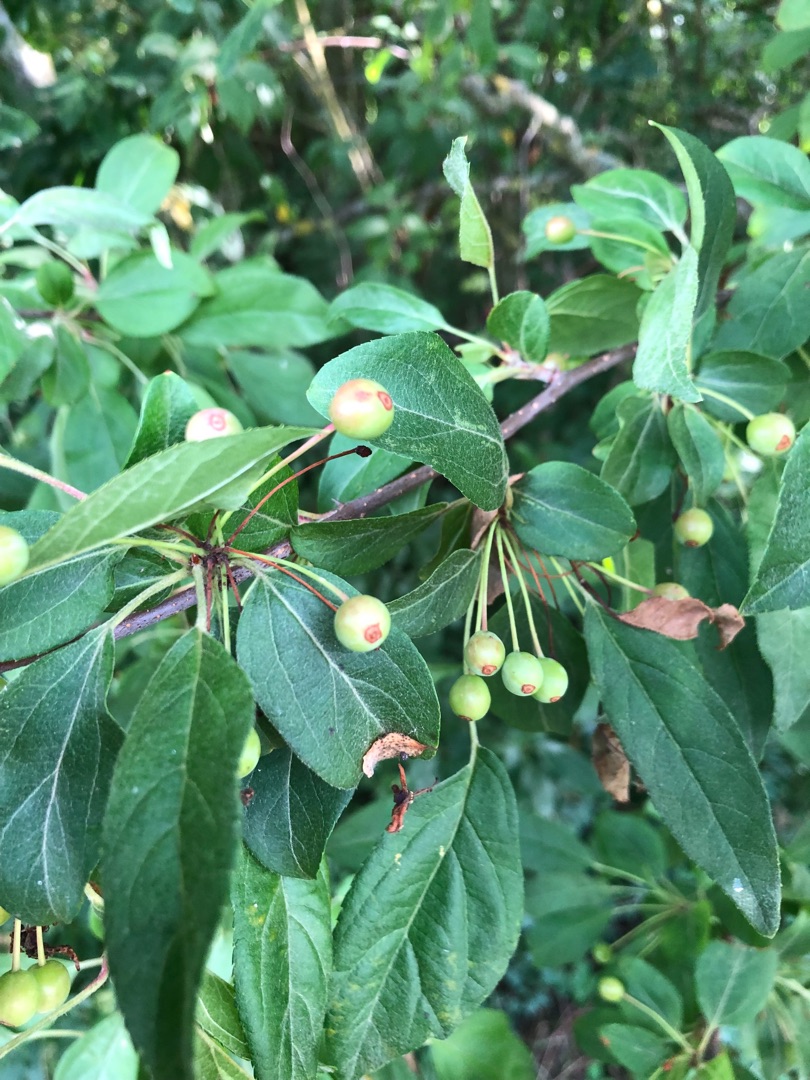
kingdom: Plantae
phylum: Tracheophyta
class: Magnoliopsida
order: Rosales
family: Rosaceae
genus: Malus
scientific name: Malus baccata
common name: Bær-æble
